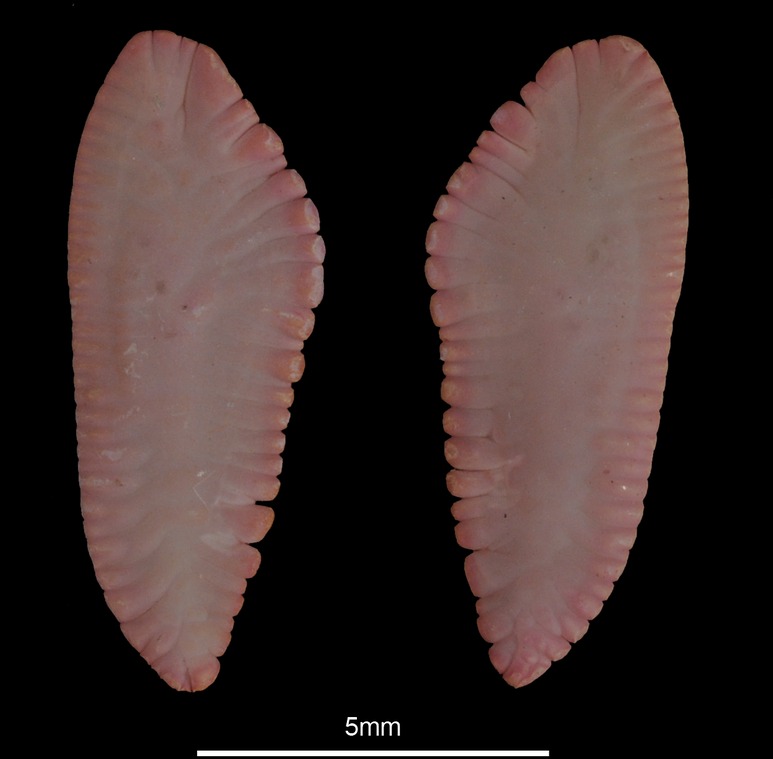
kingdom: Animalia
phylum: Chordata
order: Gadiformes
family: Merlucciidae
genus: Merluccius
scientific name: Merluccius merluccius
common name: European hake
